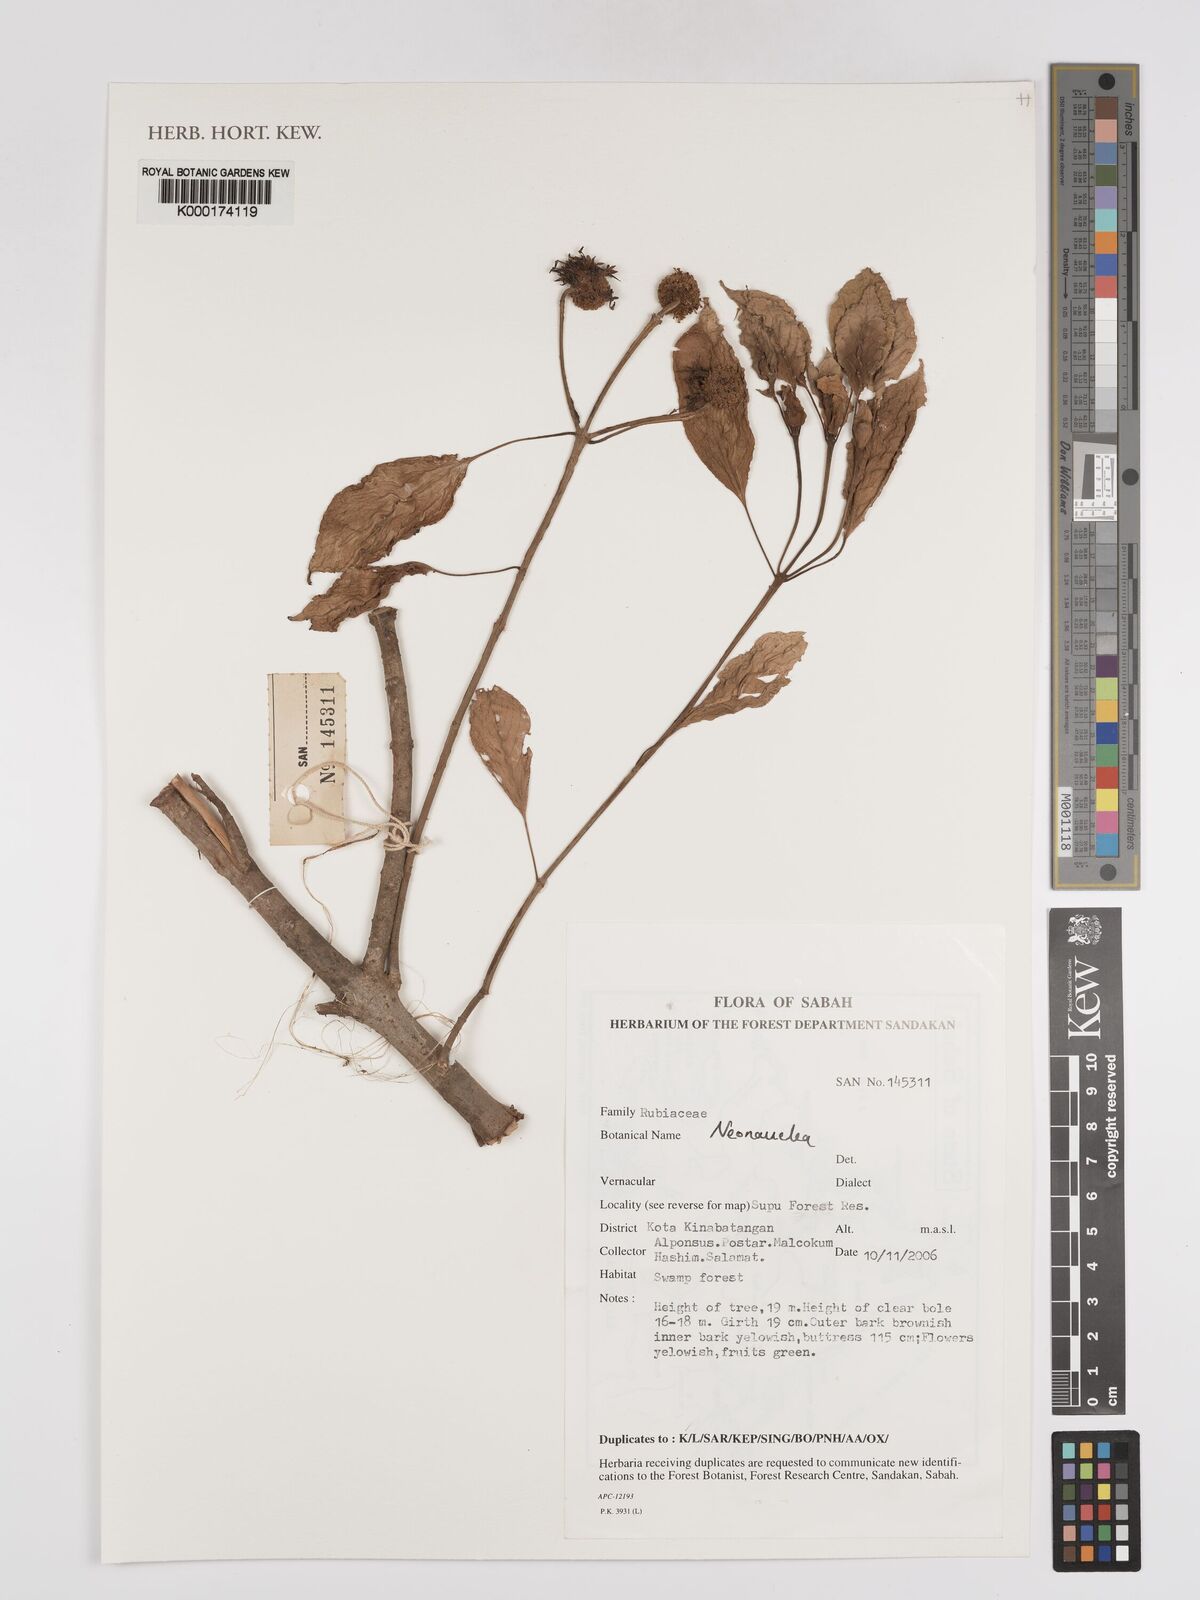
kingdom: Plantae
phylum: Tracheophyta
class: Magnoliopsida
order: Gentianales
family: Rubiaceae
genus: Neonauclea
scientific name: Neonauclea
